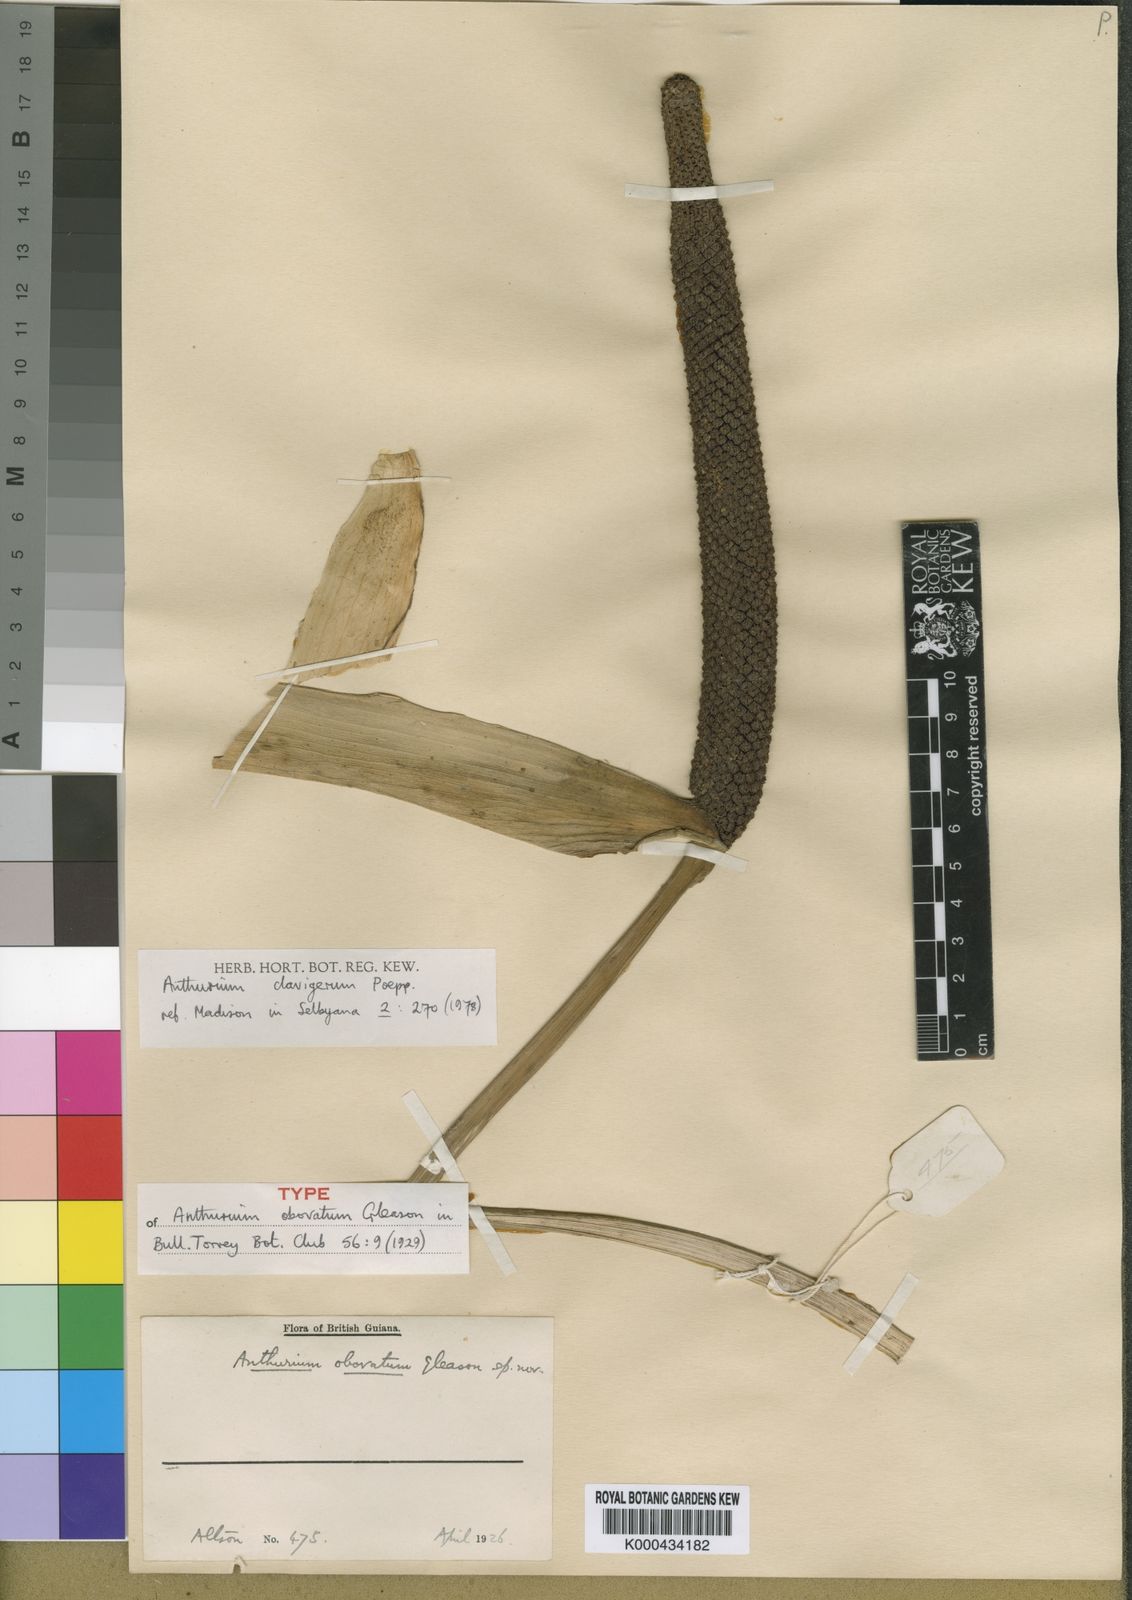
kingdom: Plantae
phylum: Tracheophyta
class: Liliopsida
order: Alismatales
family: Araceae
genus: Anthurium
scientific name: Anthurium sinuatum
